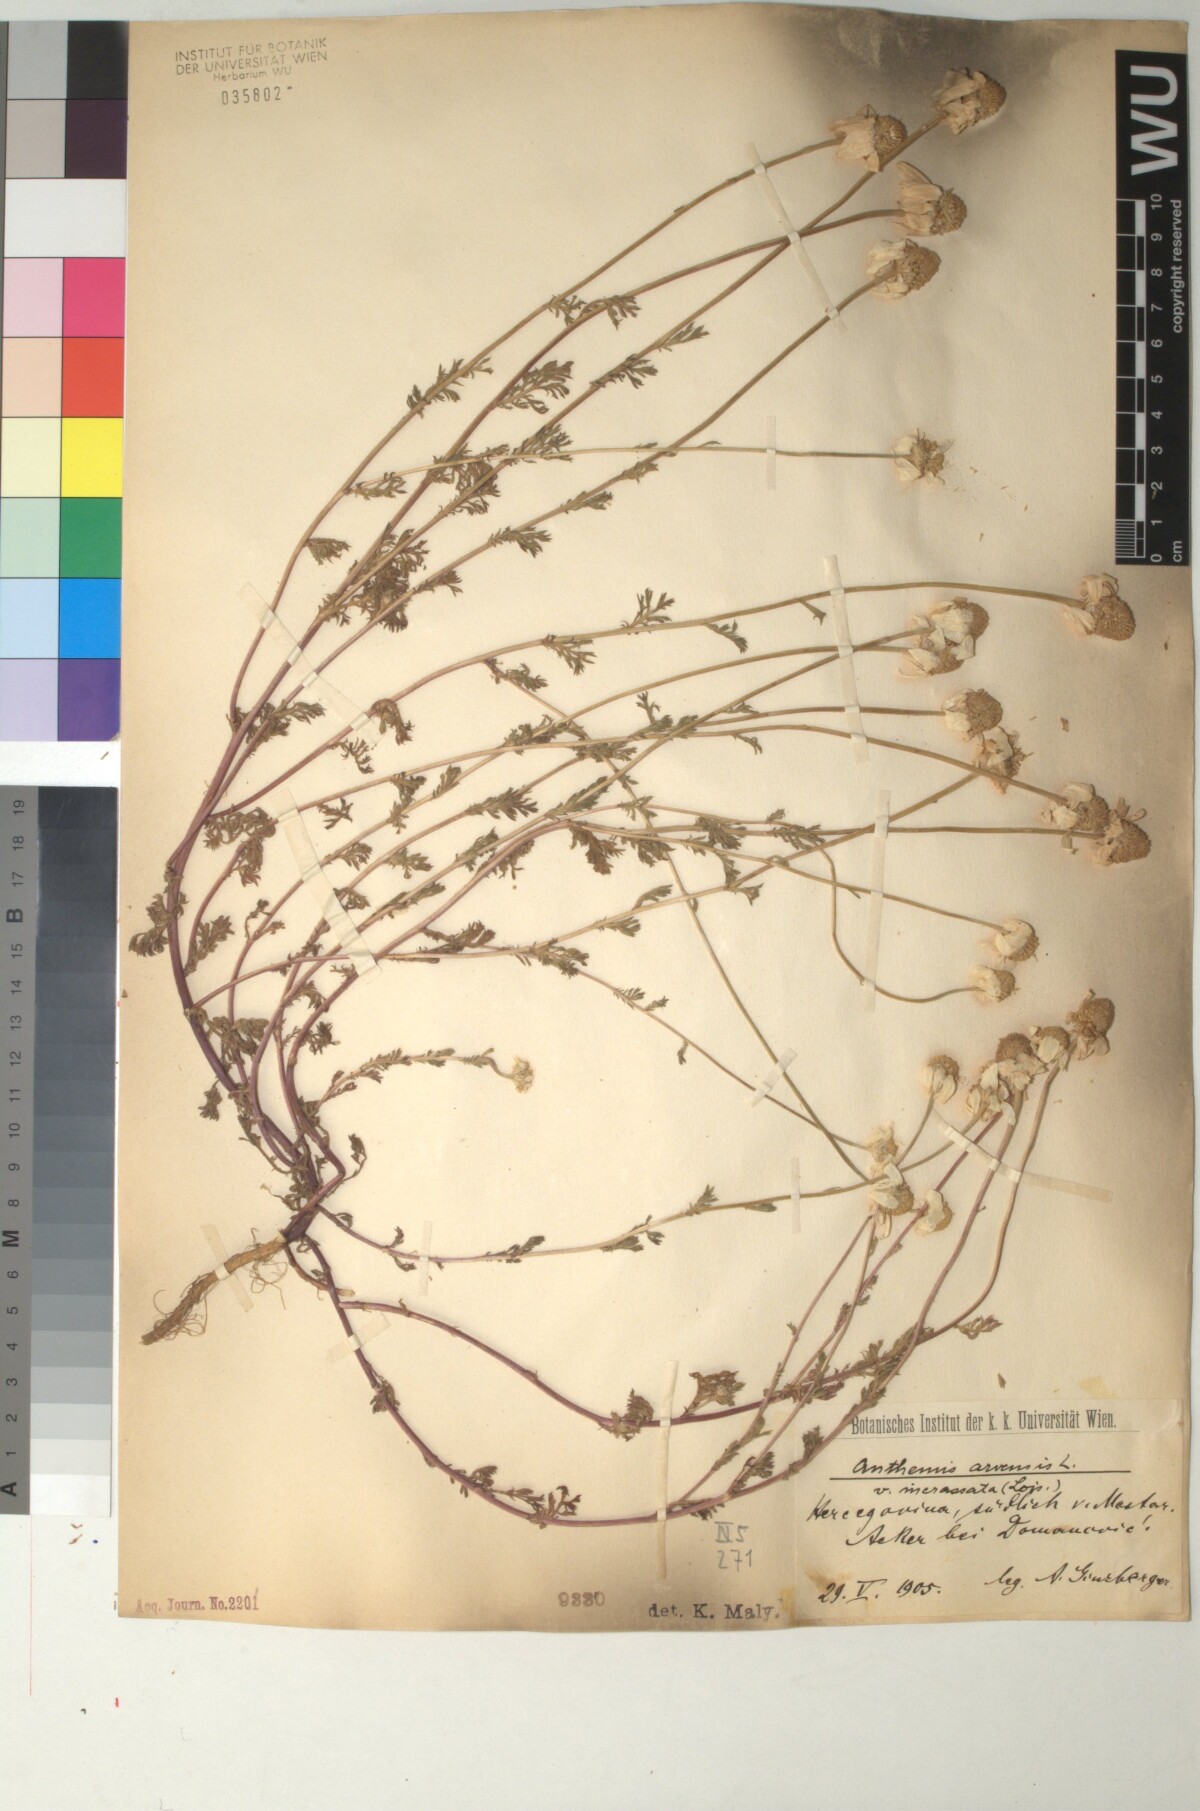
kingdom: Plantae
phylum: Tracheophyta
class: Magnoliopsida
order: Asterales
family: Asteraceae
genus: Anthemis
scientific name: Anthemis arvensis
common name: Corn chamomile
